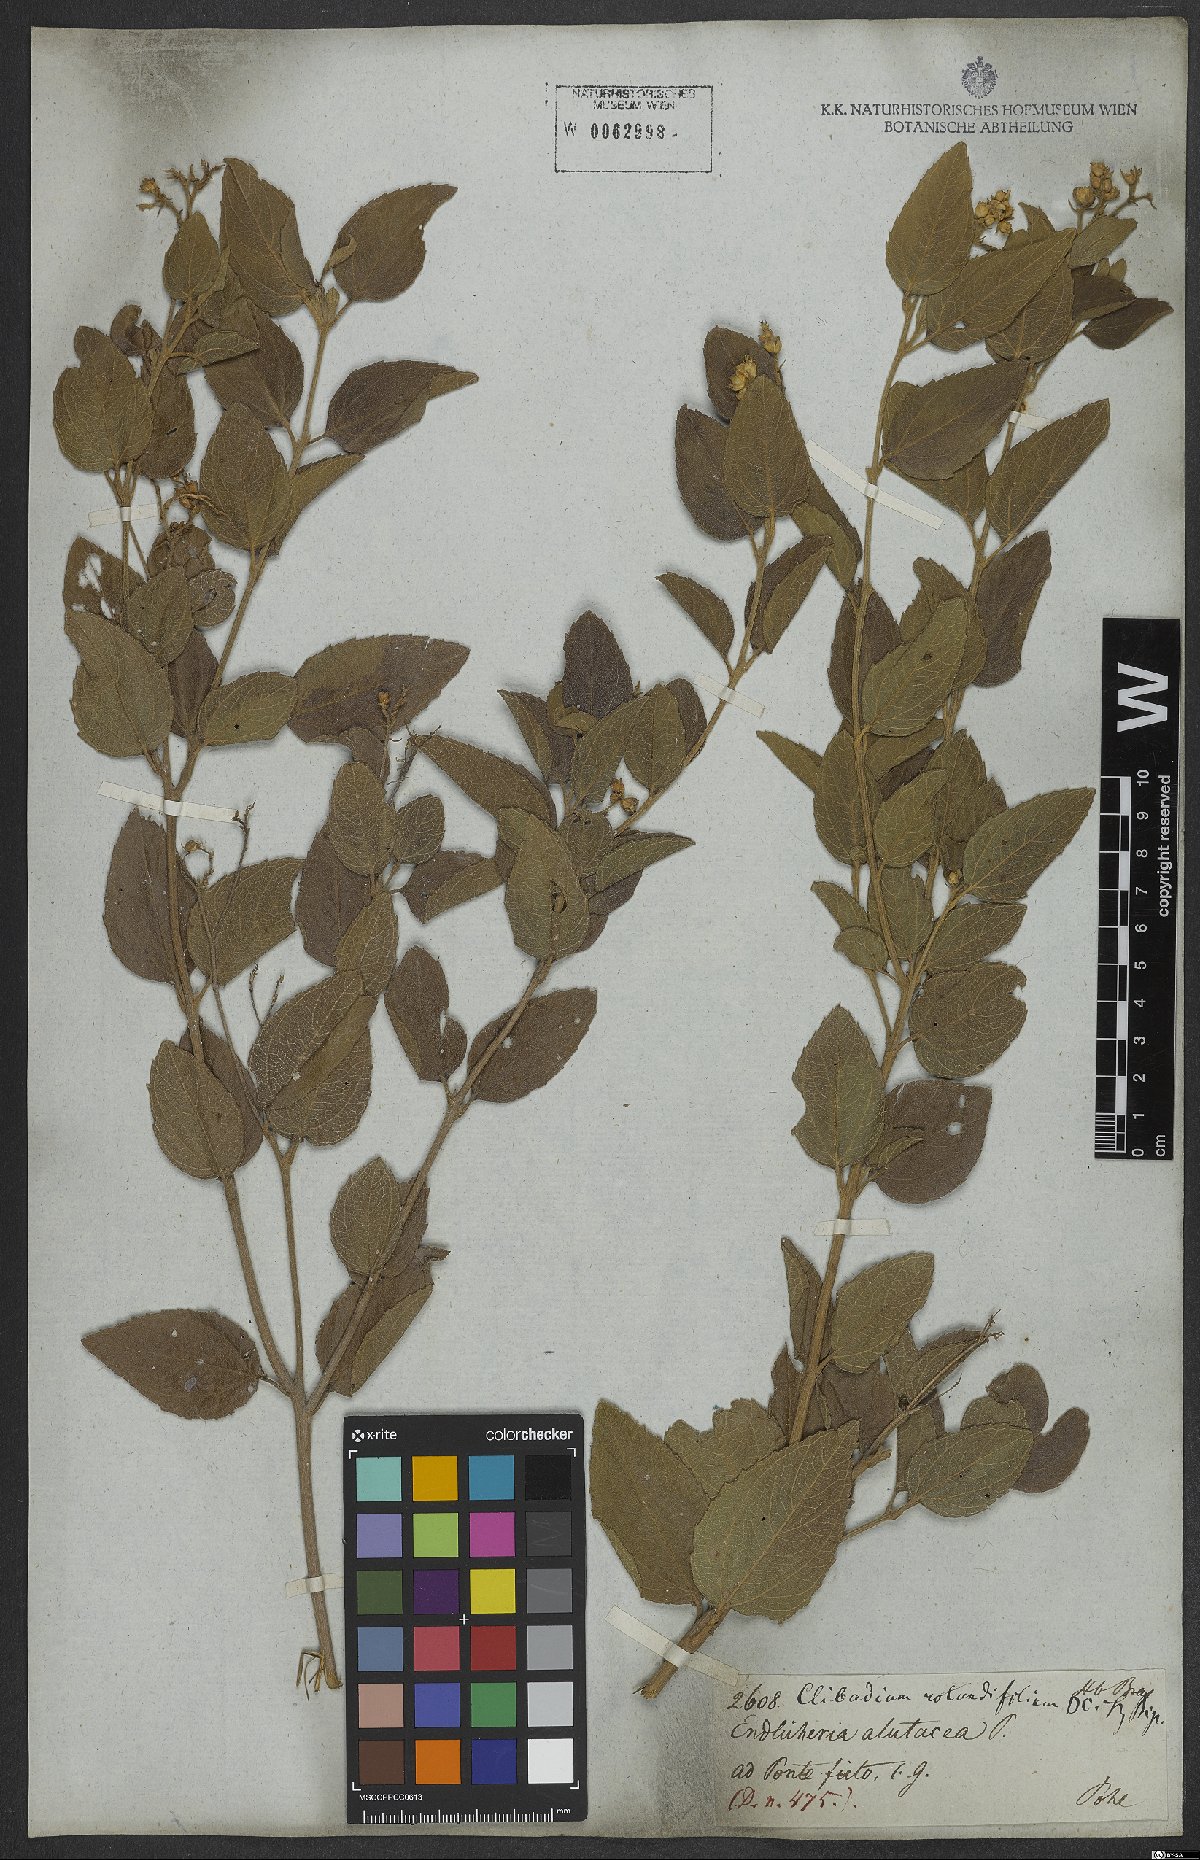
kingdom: Plantae
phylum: Tracheophyta
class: Magnoliopsida
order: Asterales
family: Asteraceae
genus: Clibadium
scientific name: Clibadium armanii
